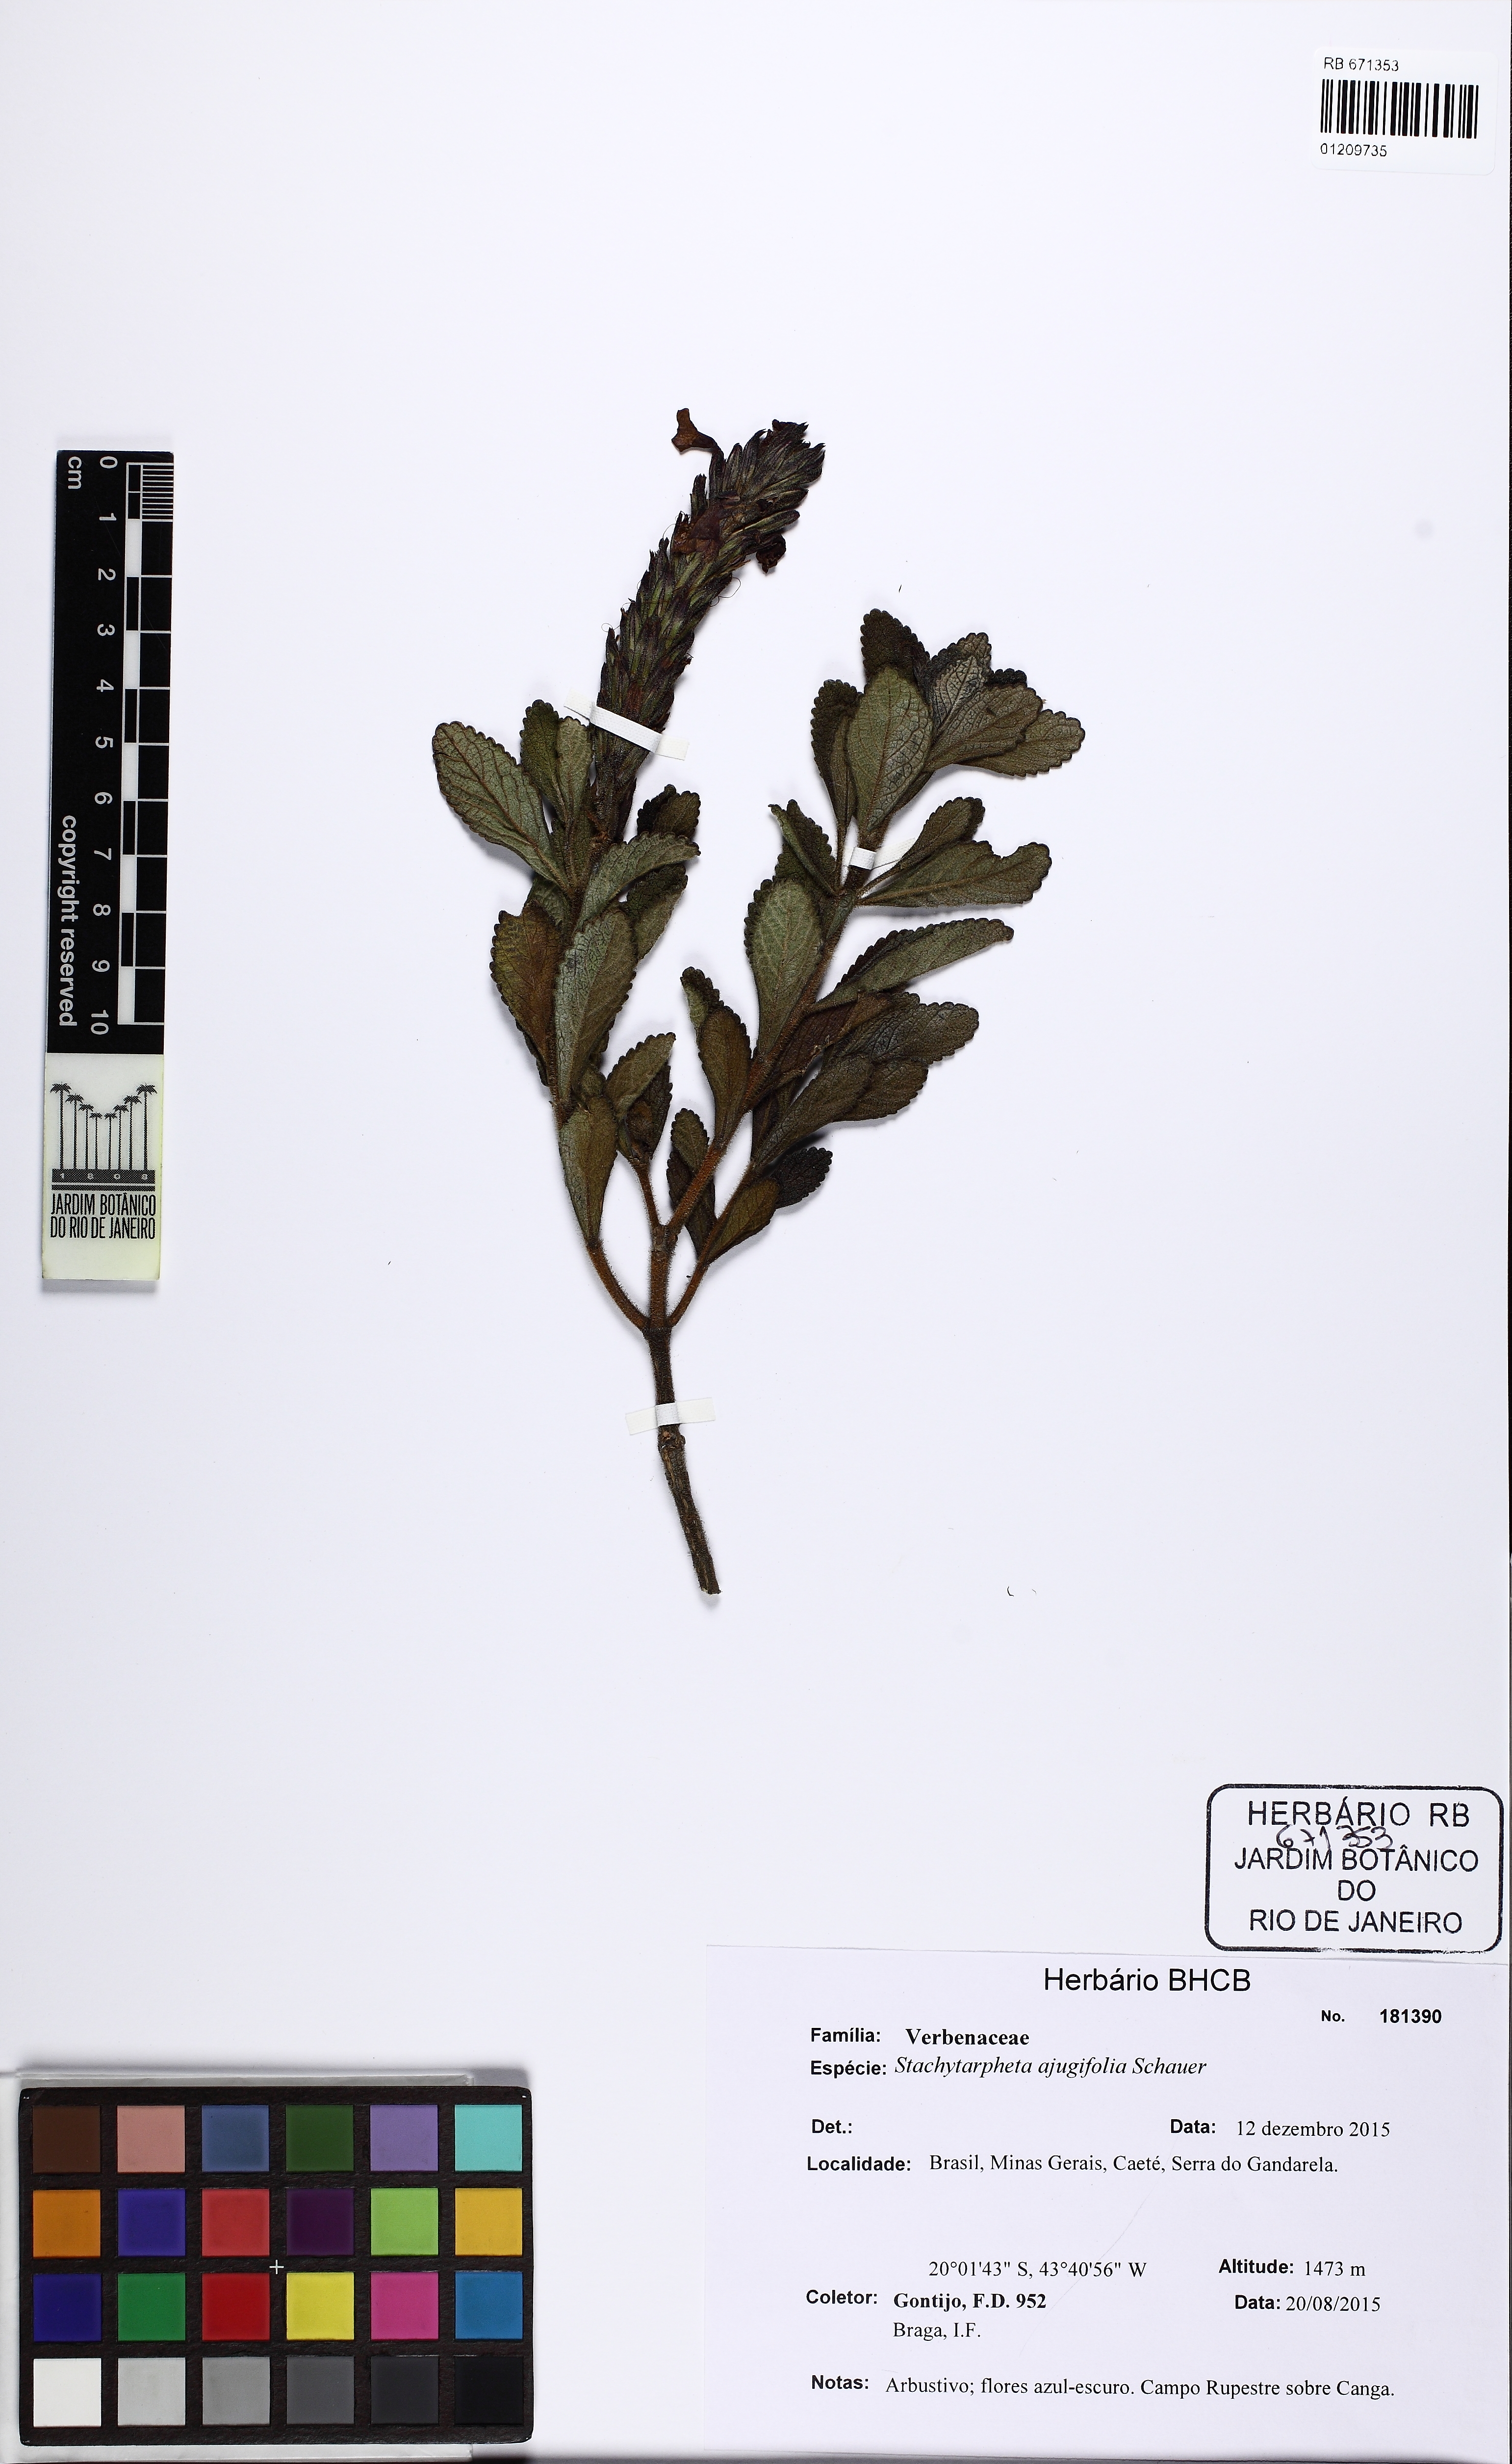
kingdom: Plantae
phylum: Tracheophyta
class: Magnoliopsida
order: Lamiales
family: Verbenaceae
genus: Stachytarpheta
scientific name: Stachytarpheta ajugifolia
